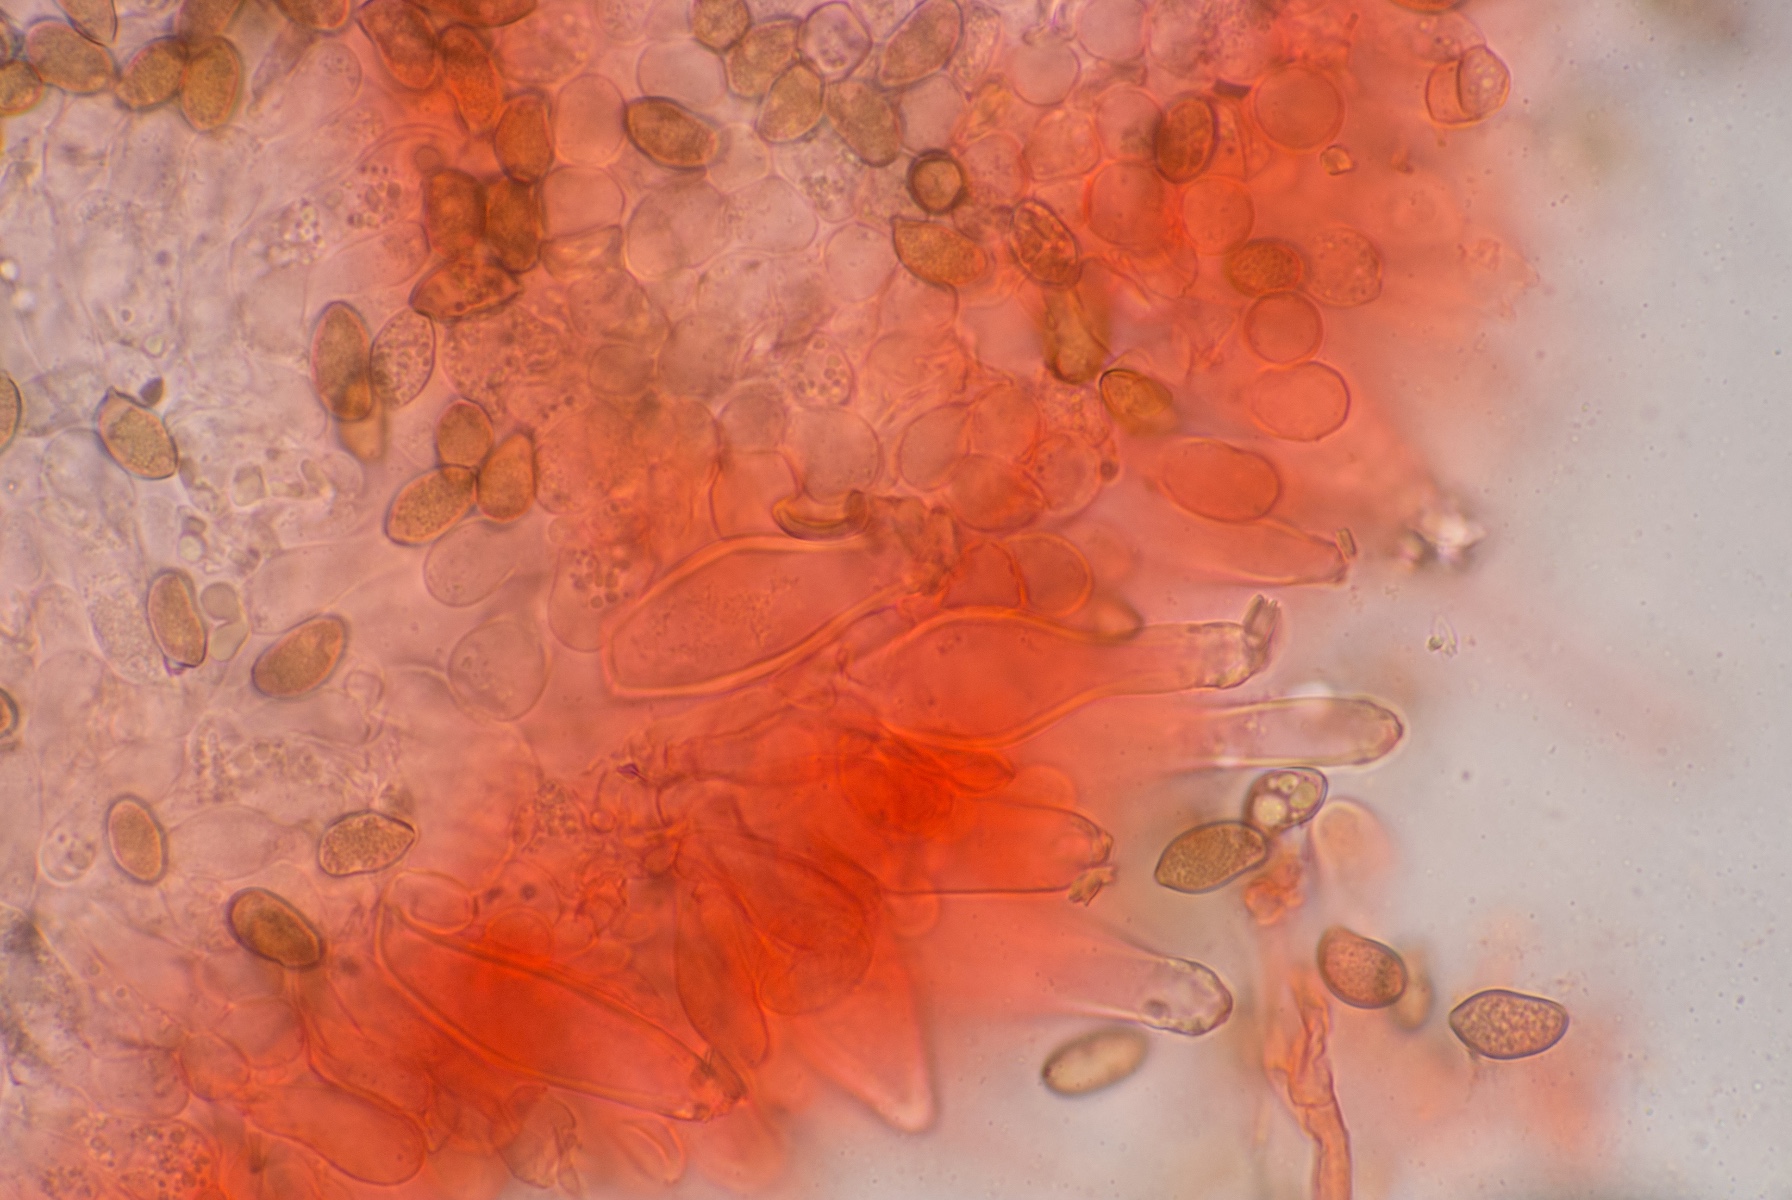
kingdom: Fungi
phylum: Basidiomycota
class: Agaricomycetes
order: Agaricales
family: Inocybaceae
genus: Inocybe
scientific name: Inocybe hirtella
